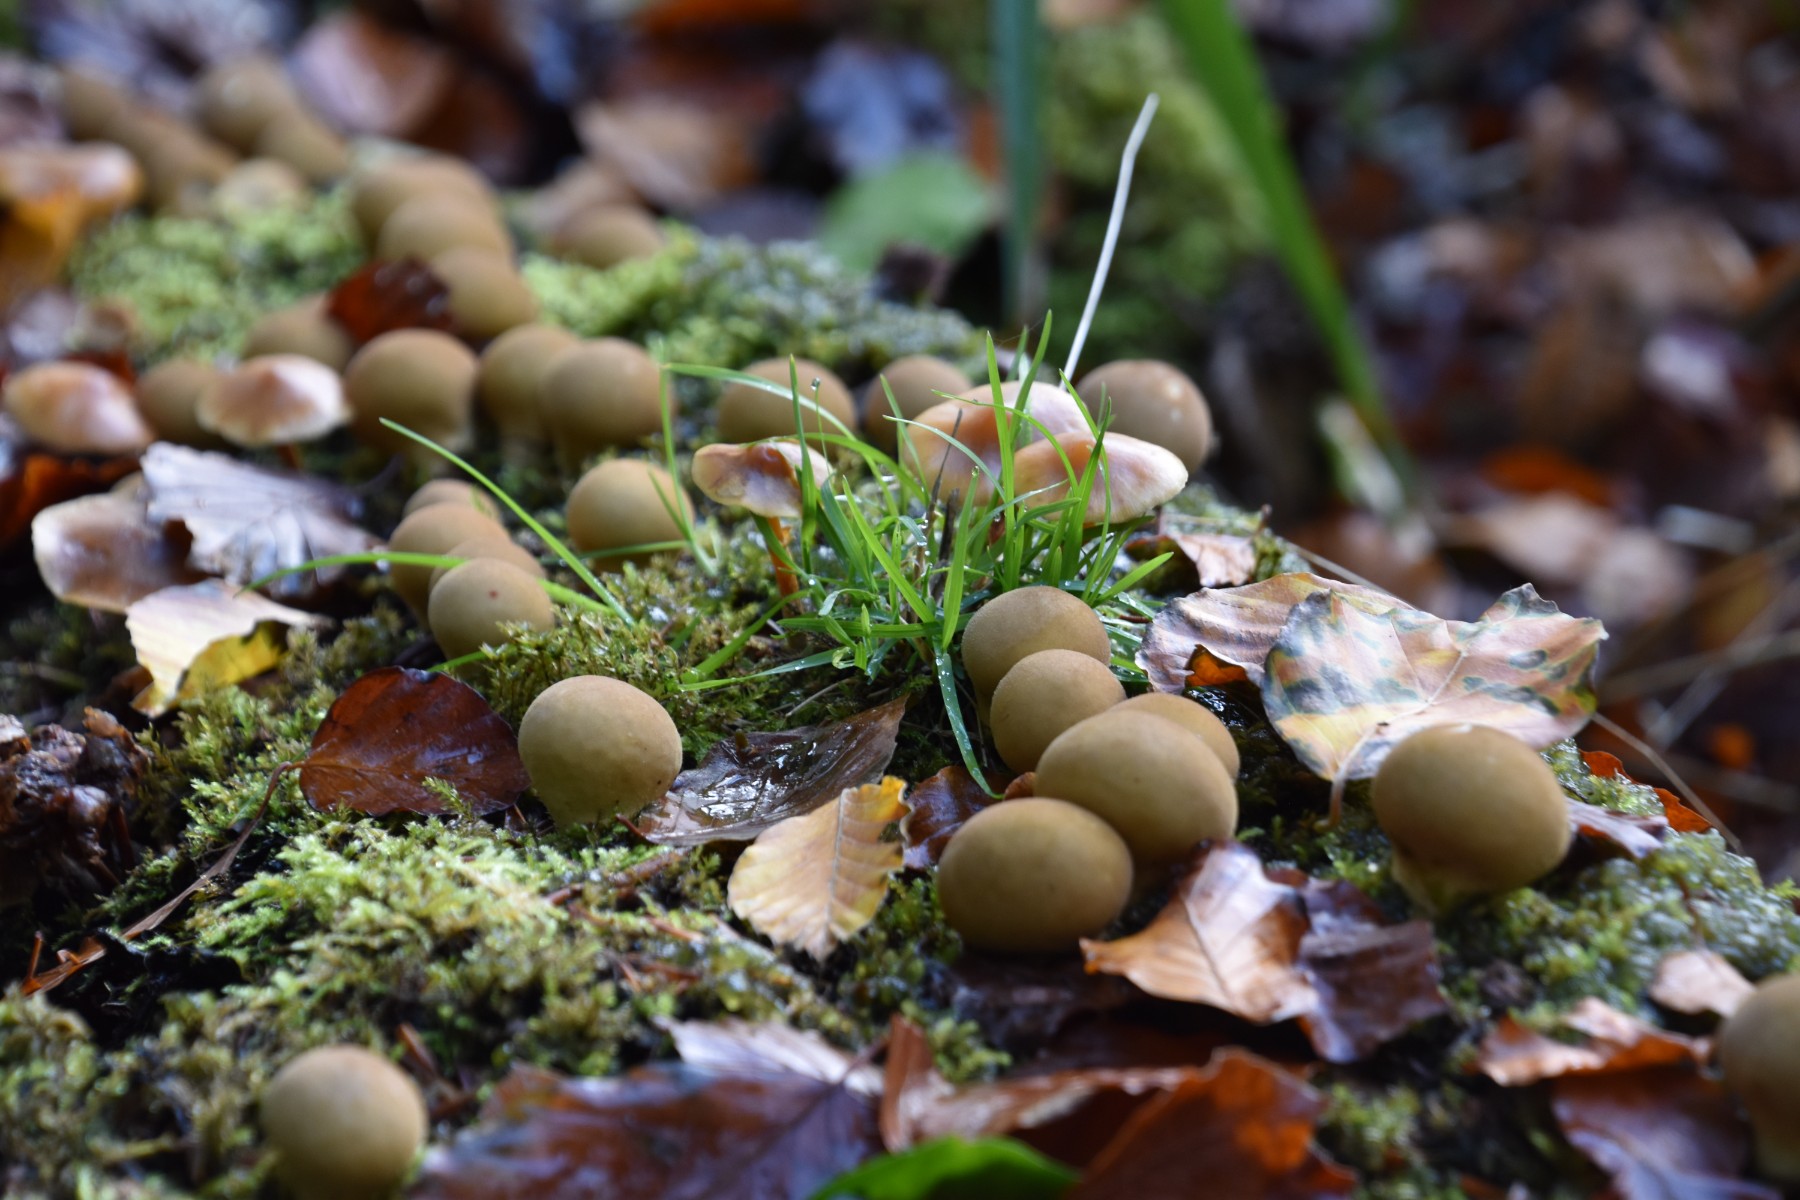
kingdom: Fungi
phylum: Basidiomycota
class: Agaricomycetes
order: Agaricales
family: Lycoperdaceae
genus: Apioperdon
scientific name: Apioperdon pyriforme
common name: pære-støvbold
